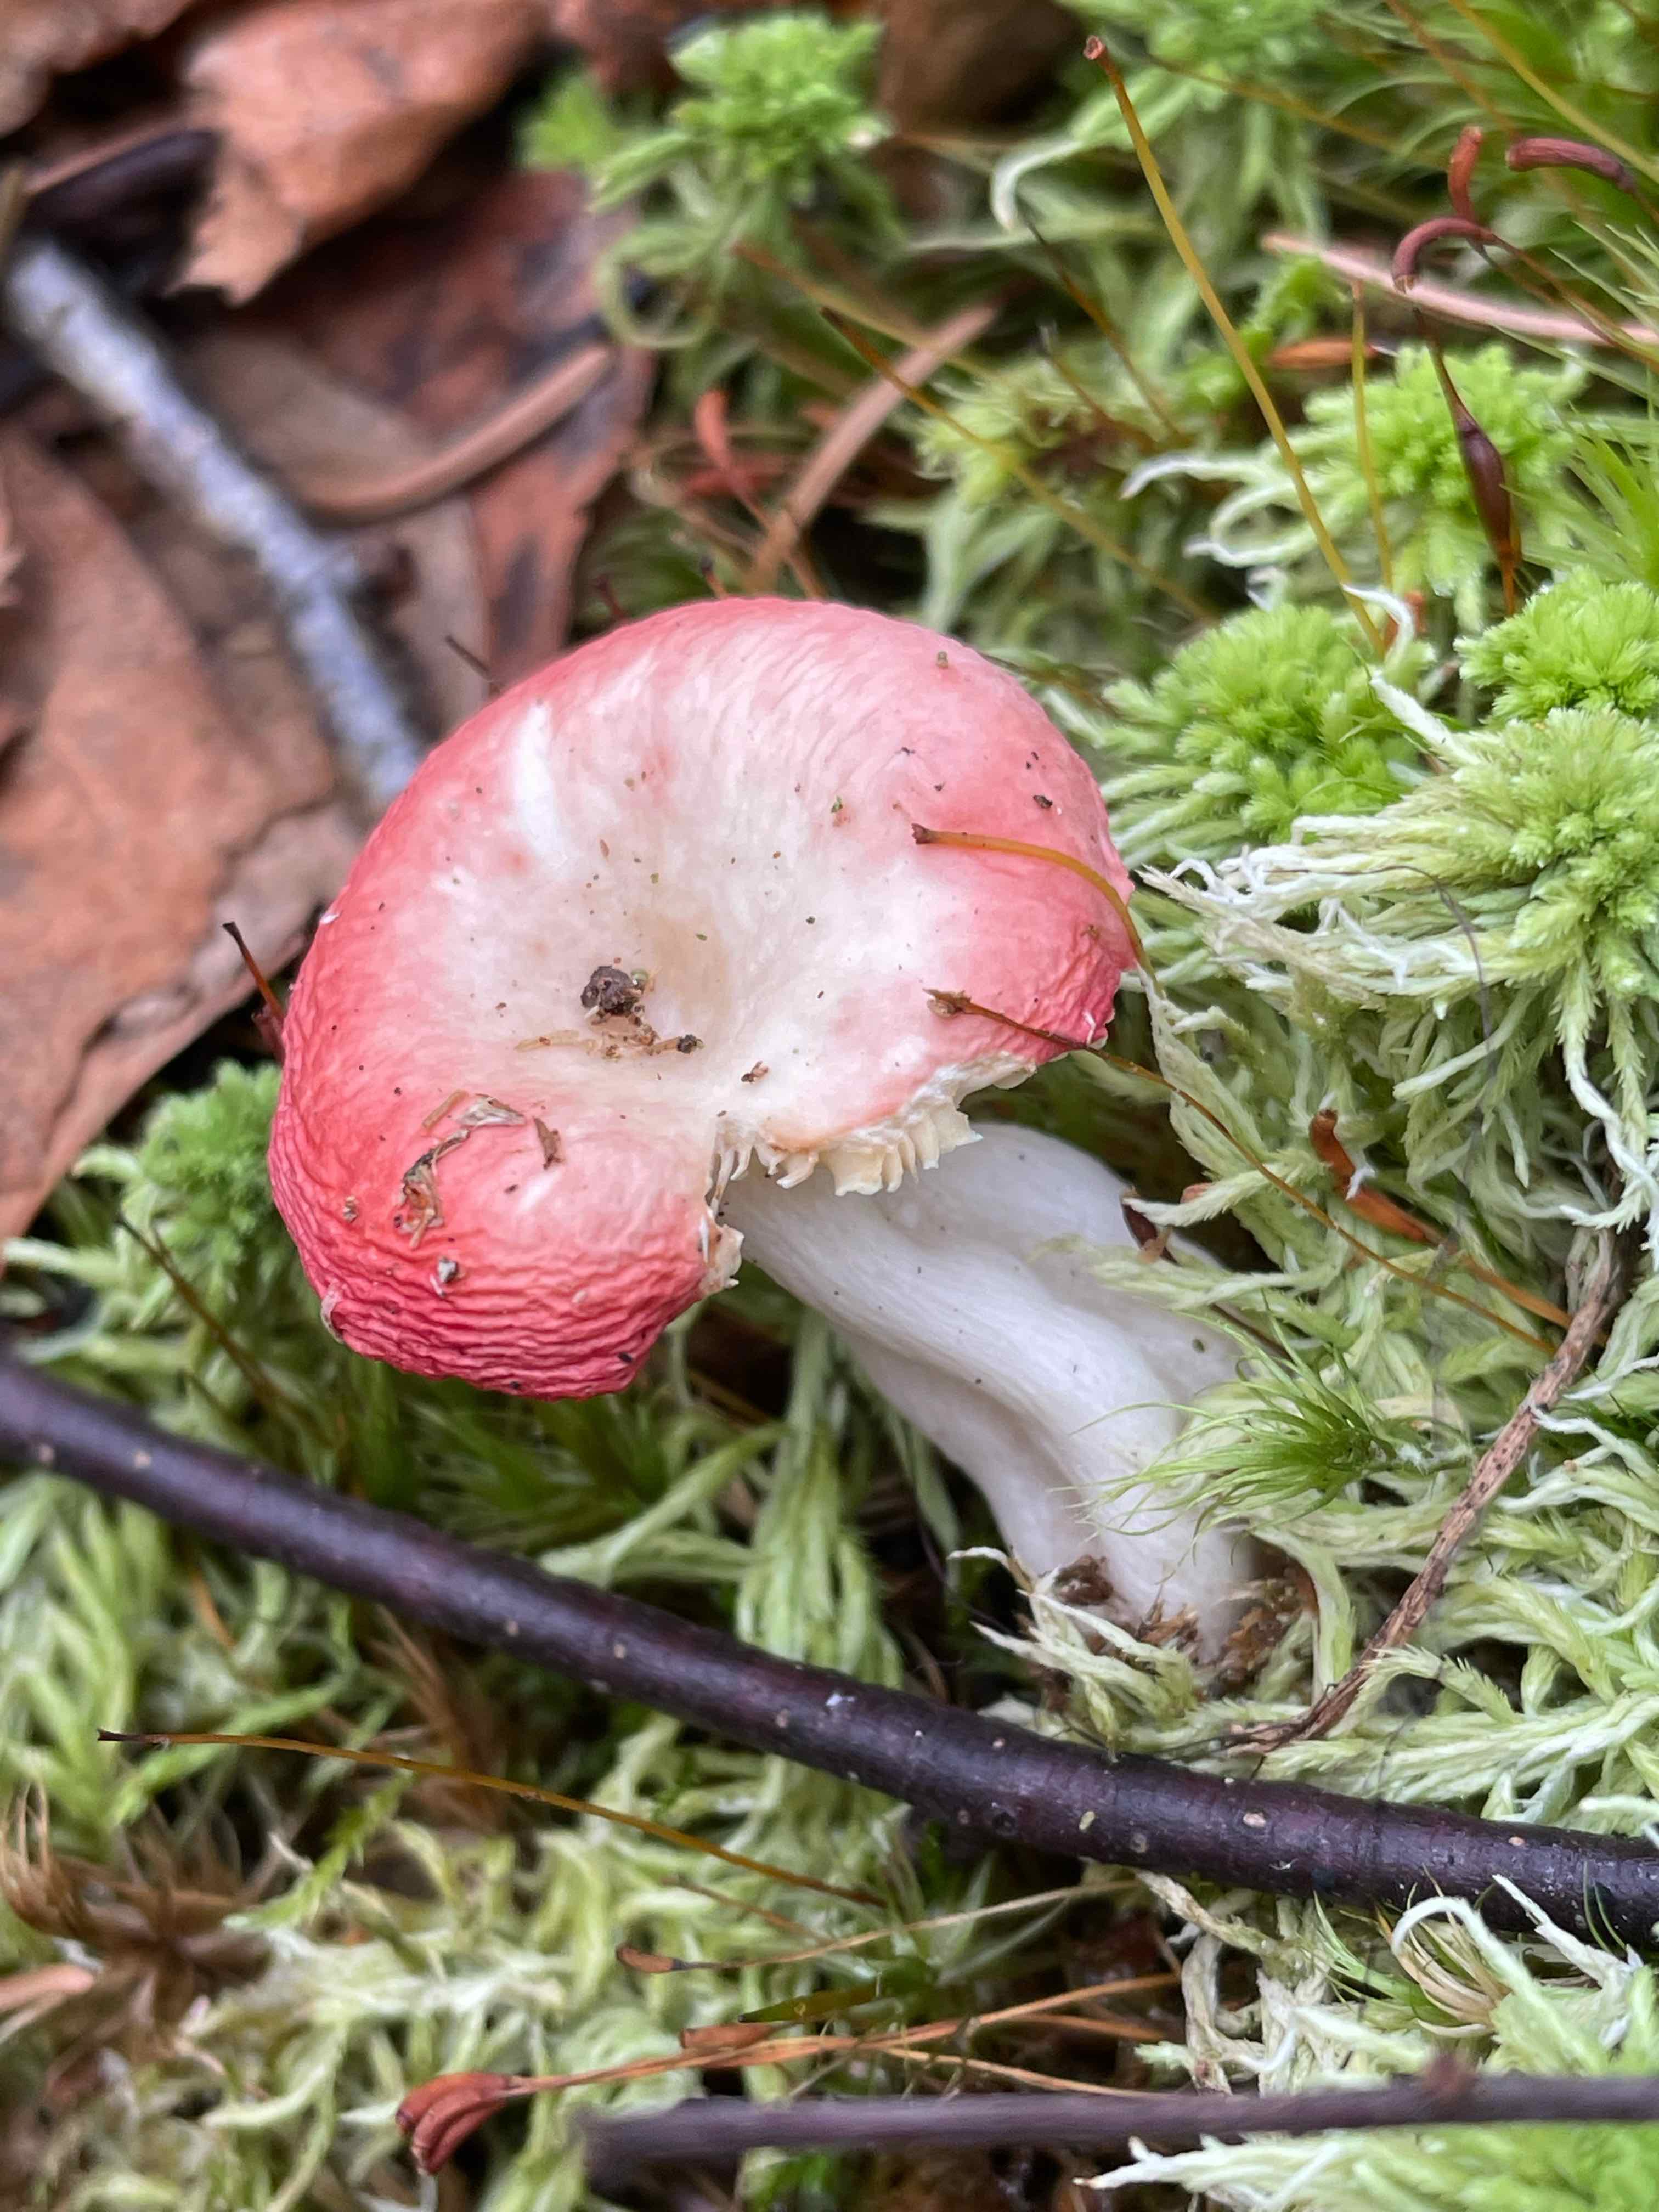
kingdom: Fungi
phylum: Basidiomycota
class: Agaricomycetes
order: Russulales
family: Russulaceae
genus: Russula
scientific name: Russula emetica
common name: stor gift-skørhat
